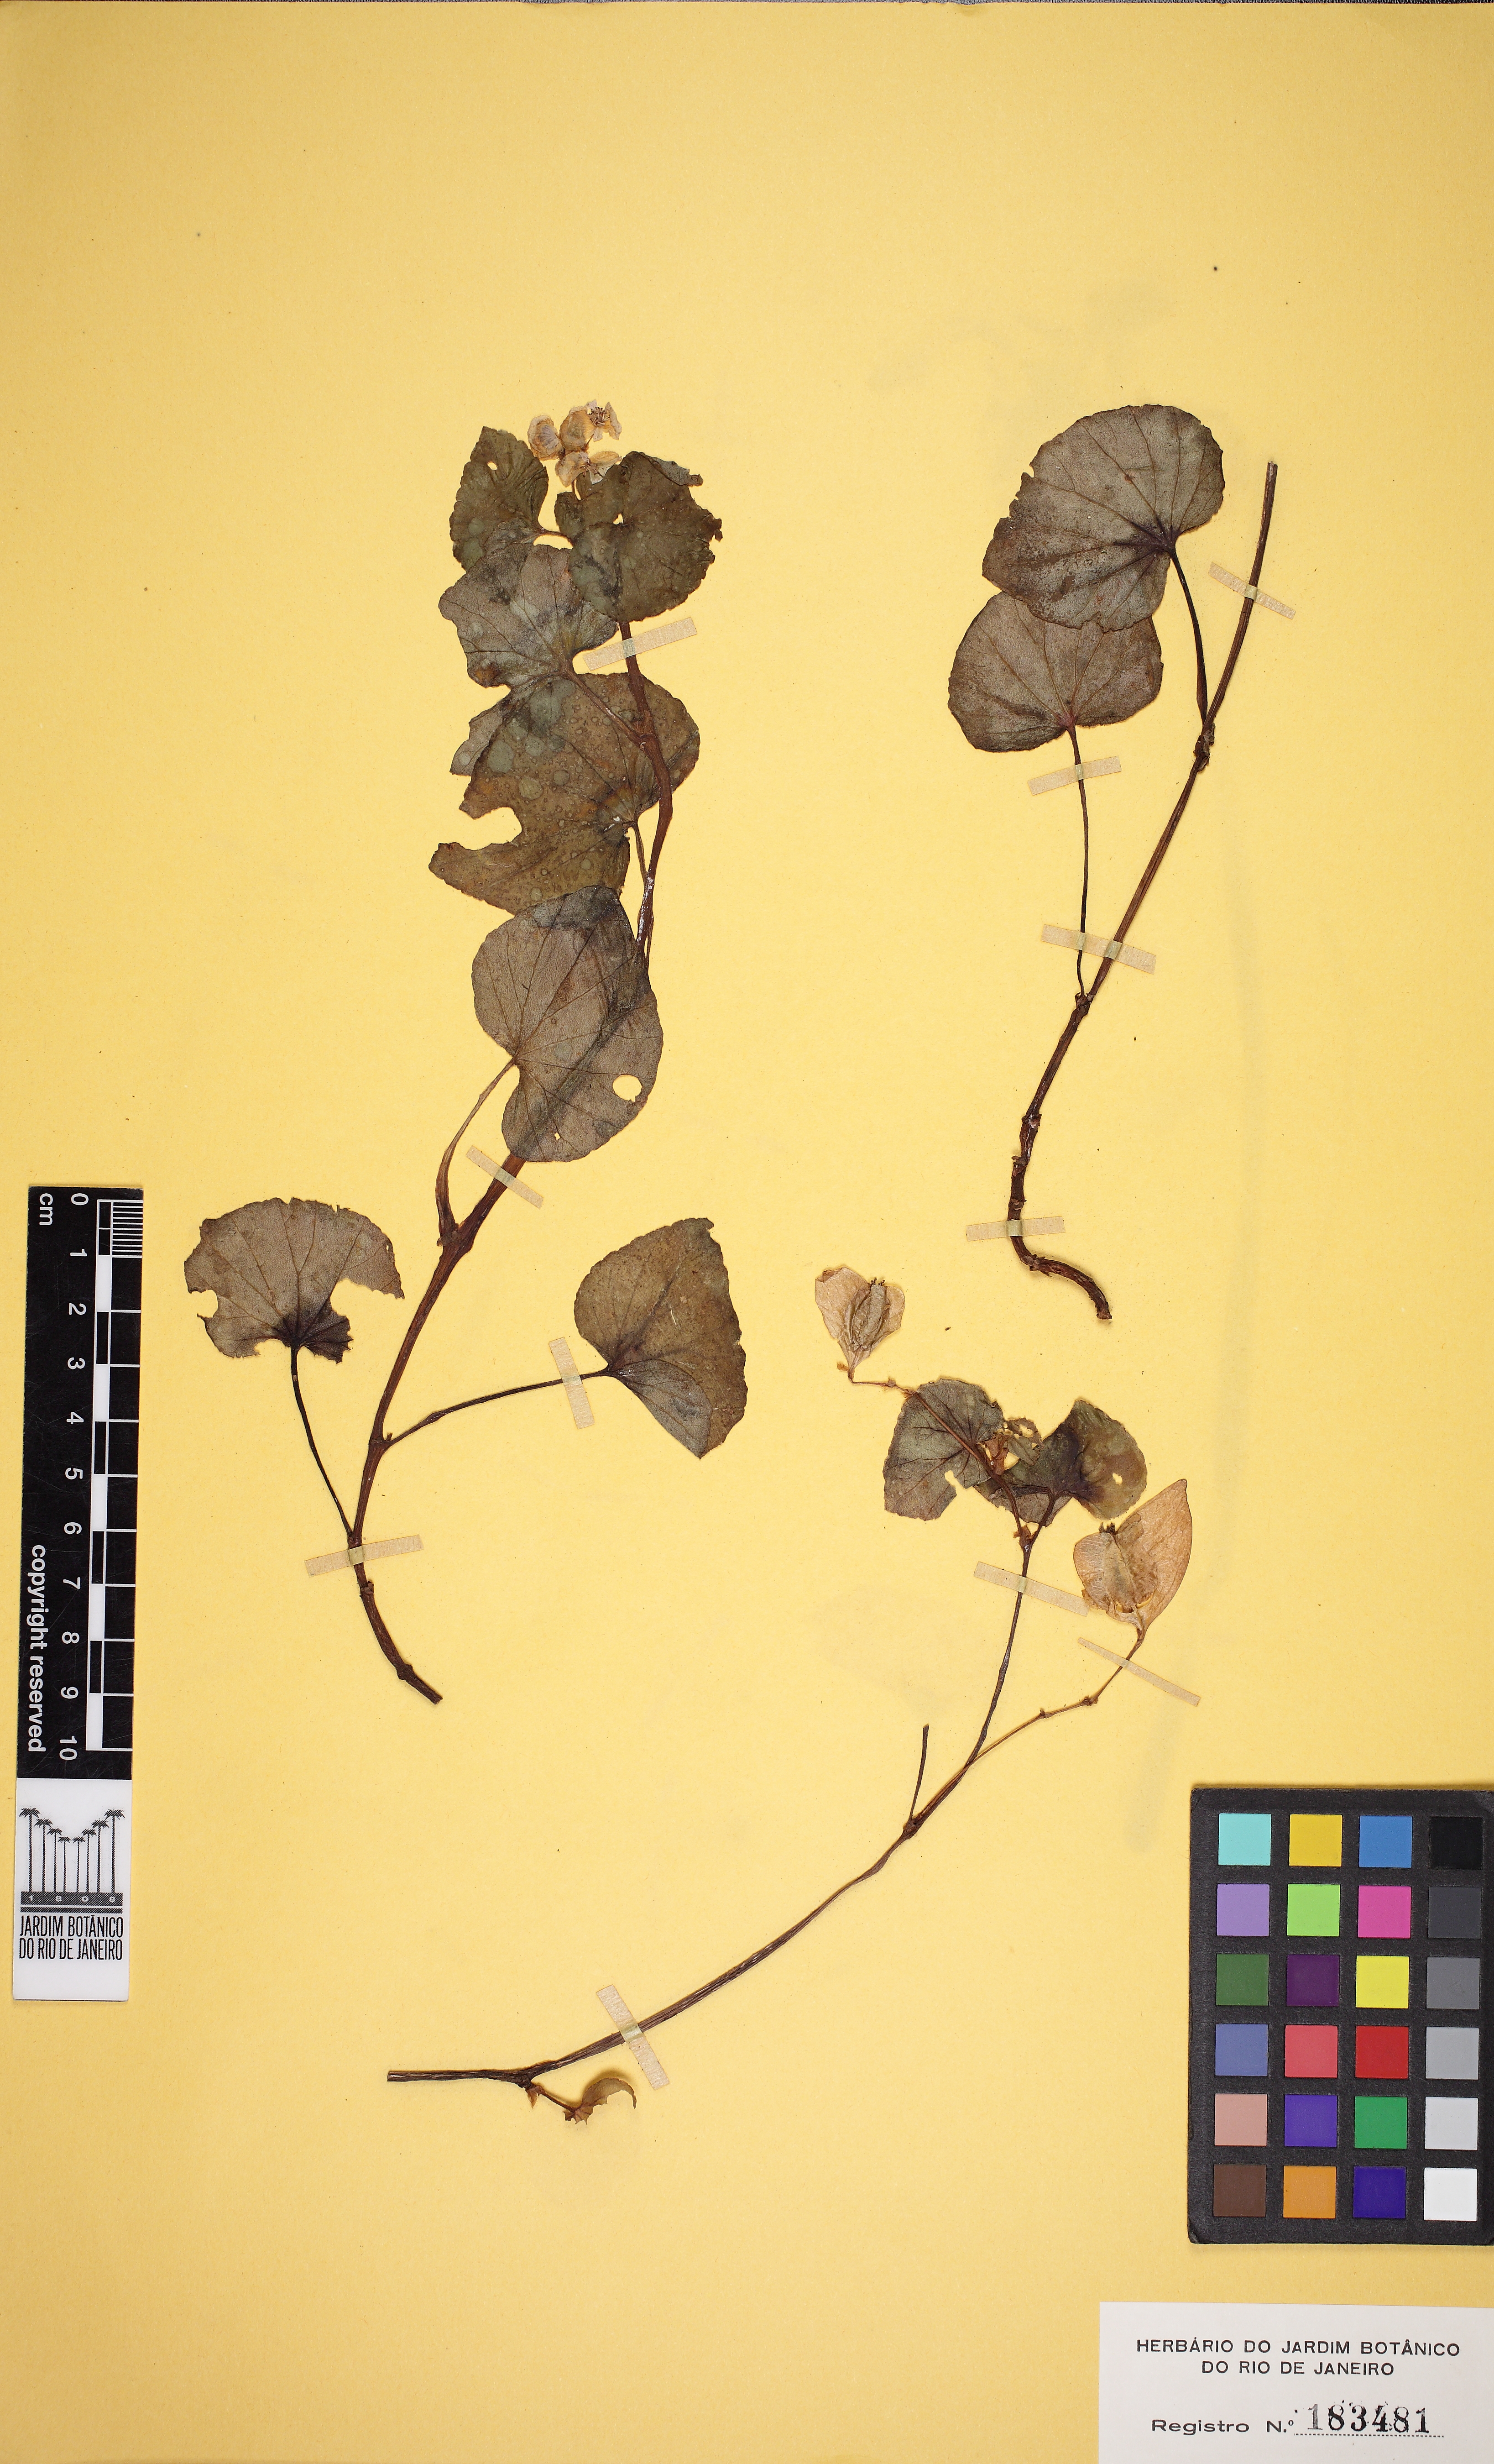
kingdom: Plantae
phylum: Tracheophyta
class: Magnoliopsida
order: Cucurbitales
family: Begoniaceae
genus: Begonia
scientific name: Begonia fischeri
